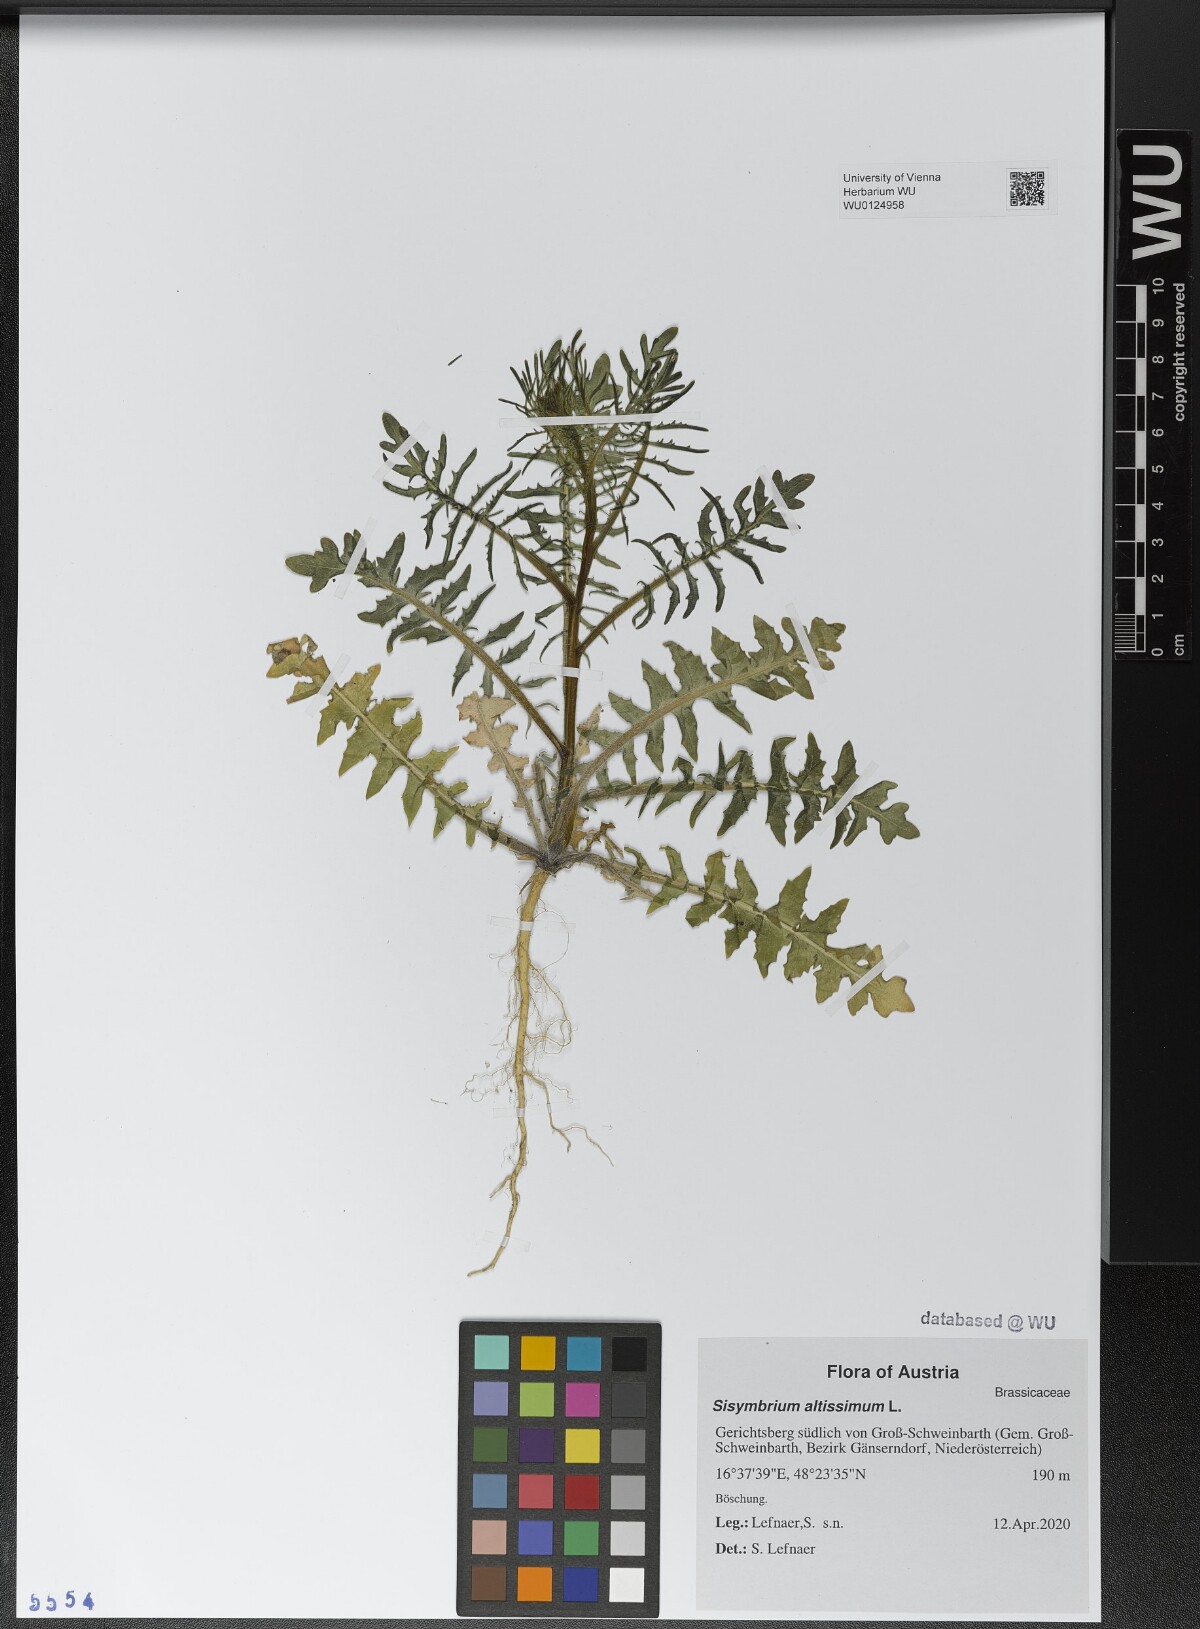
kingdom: Plantae
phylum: Tracheophyta
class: Magnoliopsida
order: Brassicales
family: Brassicaceae
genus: Sisymbrium
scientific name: Sisymbrium altissimum
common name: Tall rocket
